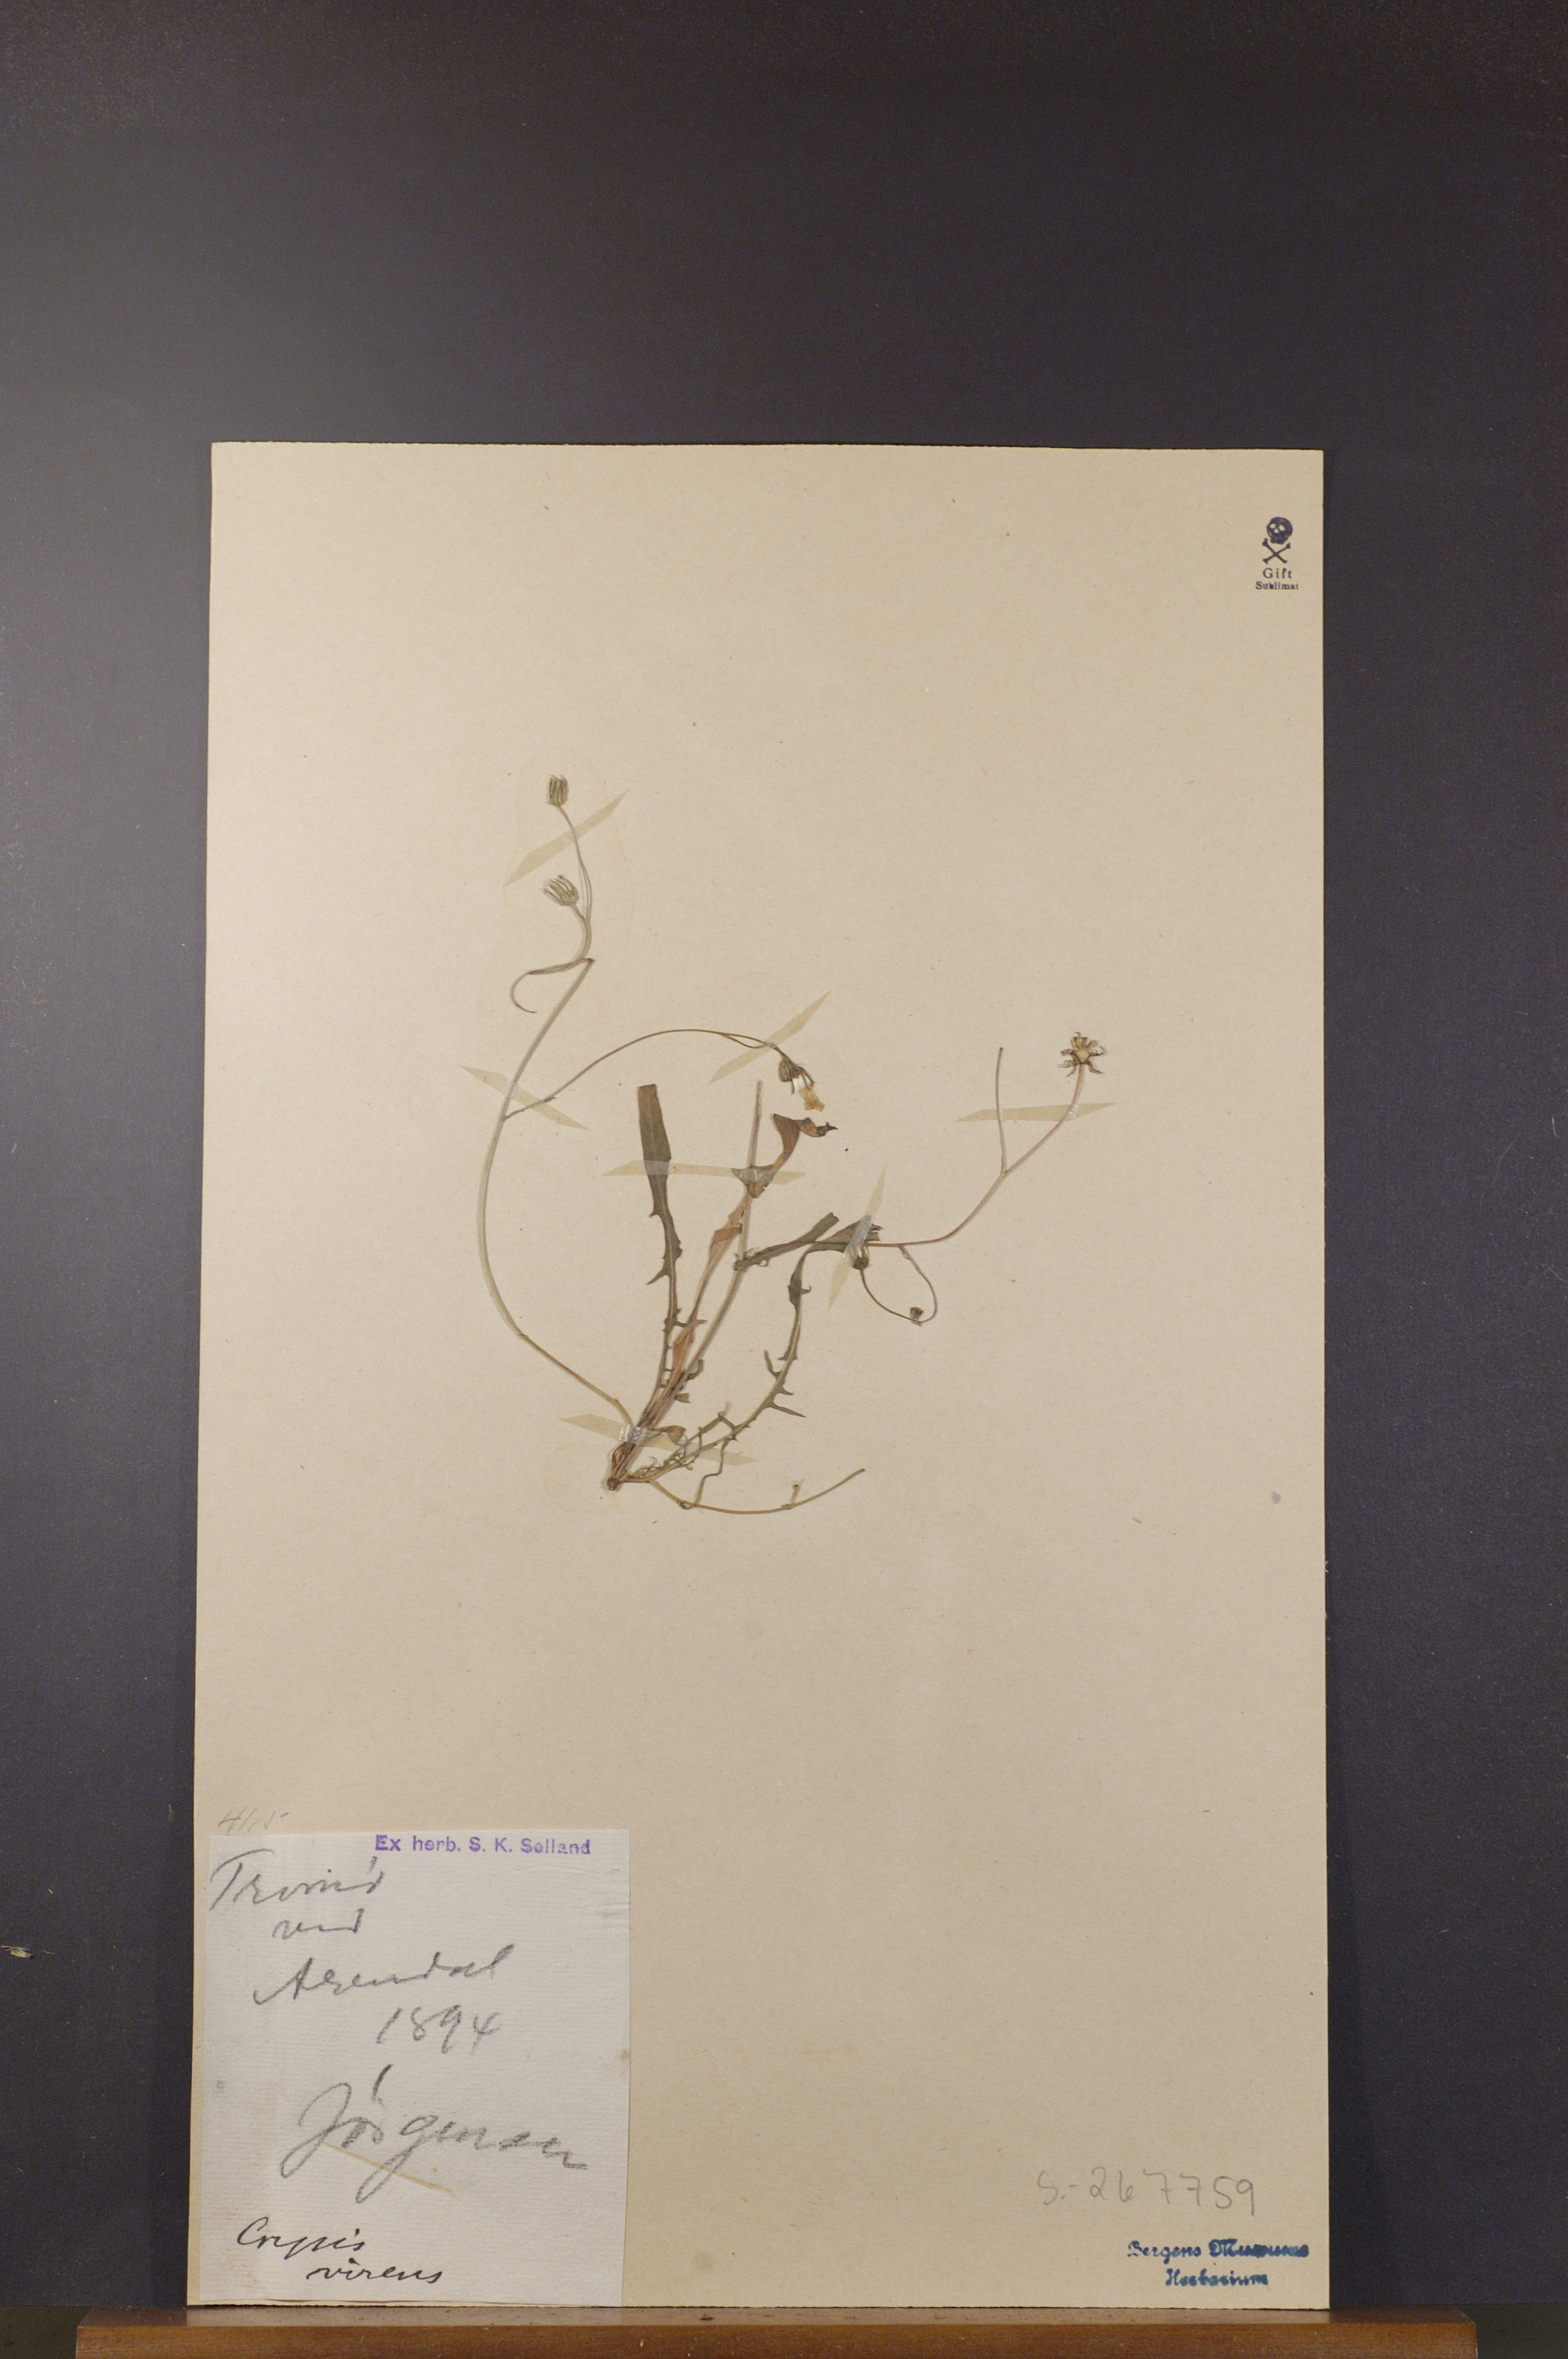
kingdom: Plantae
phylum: Tracheophyta
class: Magnoliopsida
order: Asterales
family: Asteraceae
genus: Crepis
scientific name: Crepis capillaris
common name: Smooth hawksbeard
